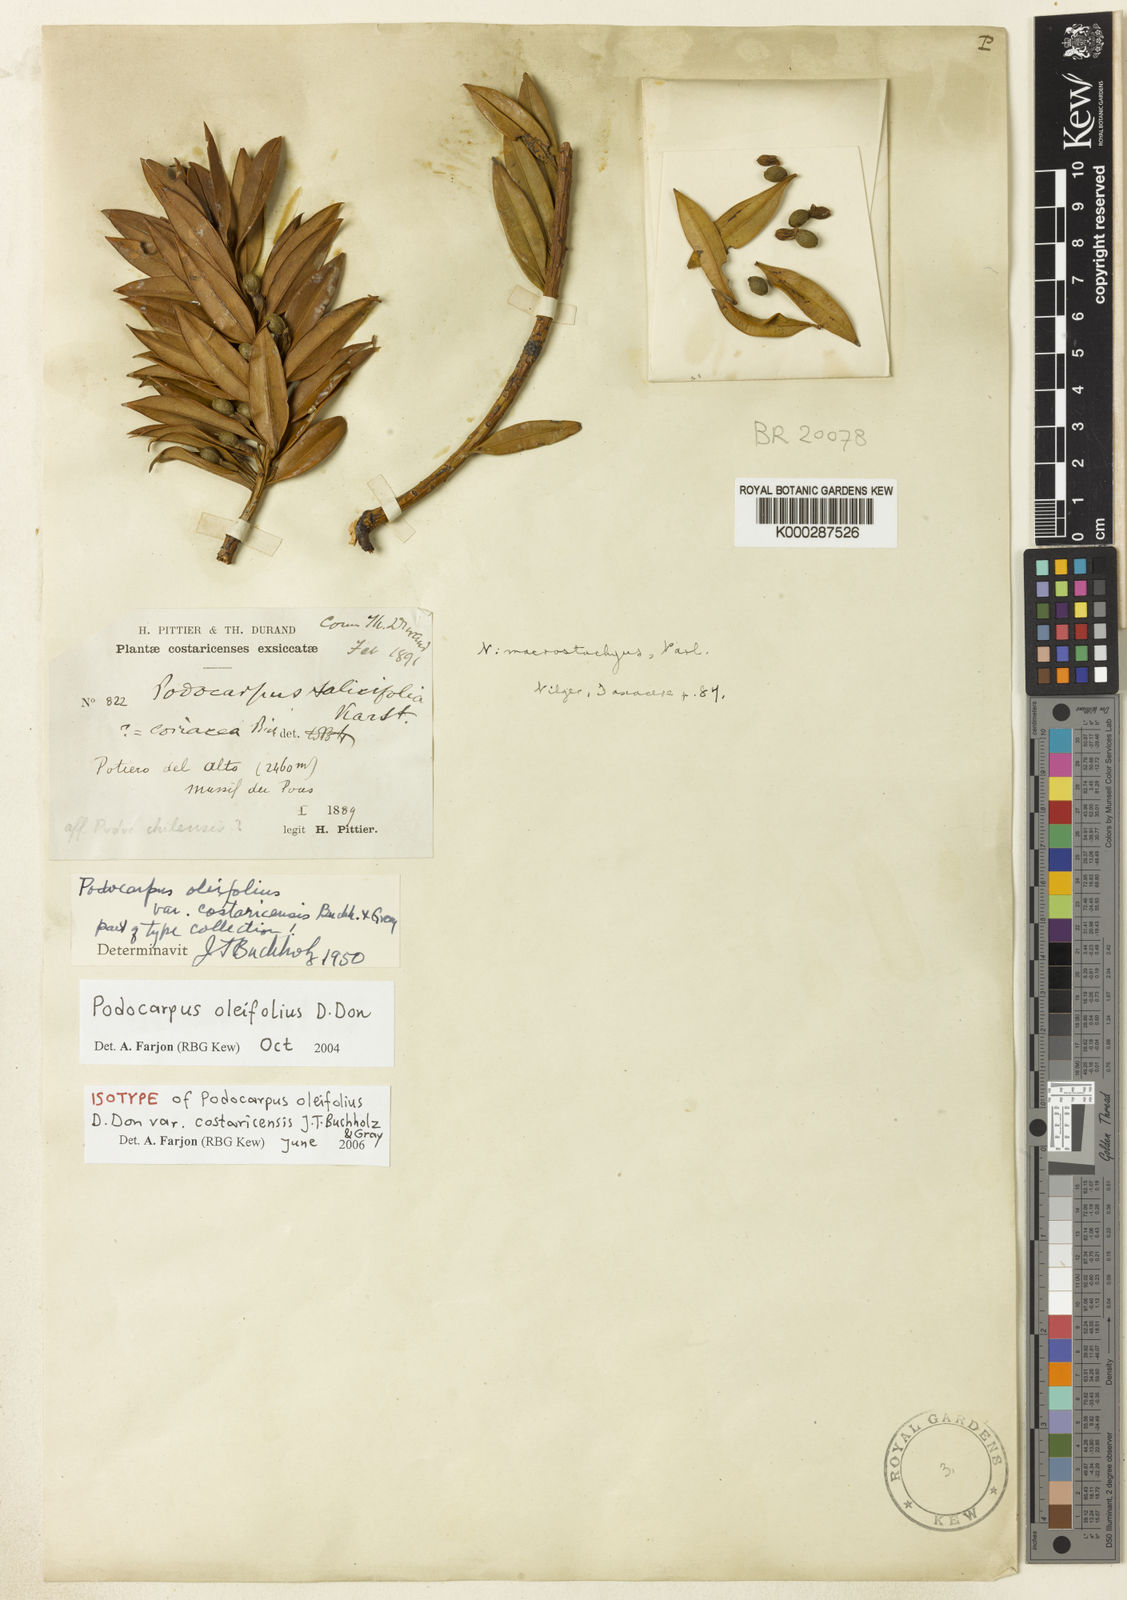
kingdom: Plantae
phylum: Tracheophyta
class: Pinopsida
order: Pinales
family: Podocarpaceae
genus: Podocarpus
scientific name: Podocarpus oleifolius
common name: Olive-leaf podoberry
